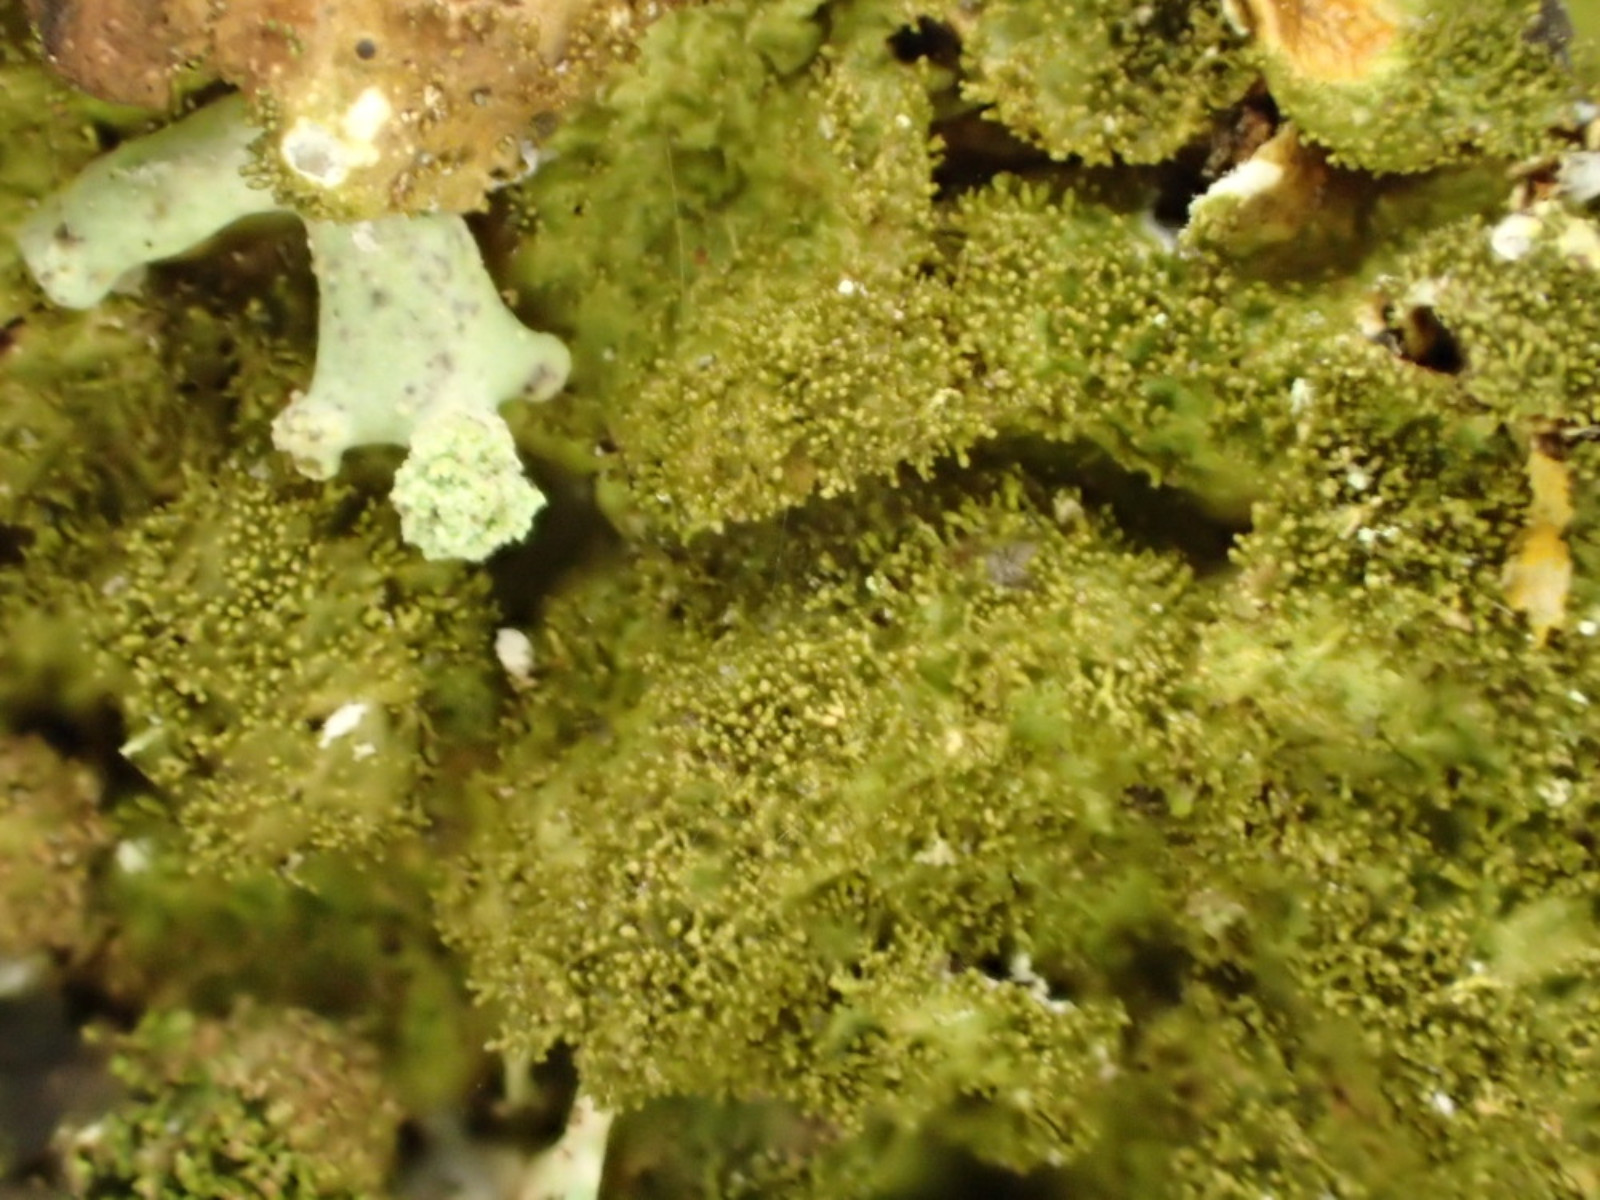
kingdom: Fungi
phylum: Ascomycota
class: Lecanoromycetes
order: Lecanorales
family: Parmeliaceae
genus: Melanelixia
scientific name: Melanelixia glabratula
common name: glinsende skållav
